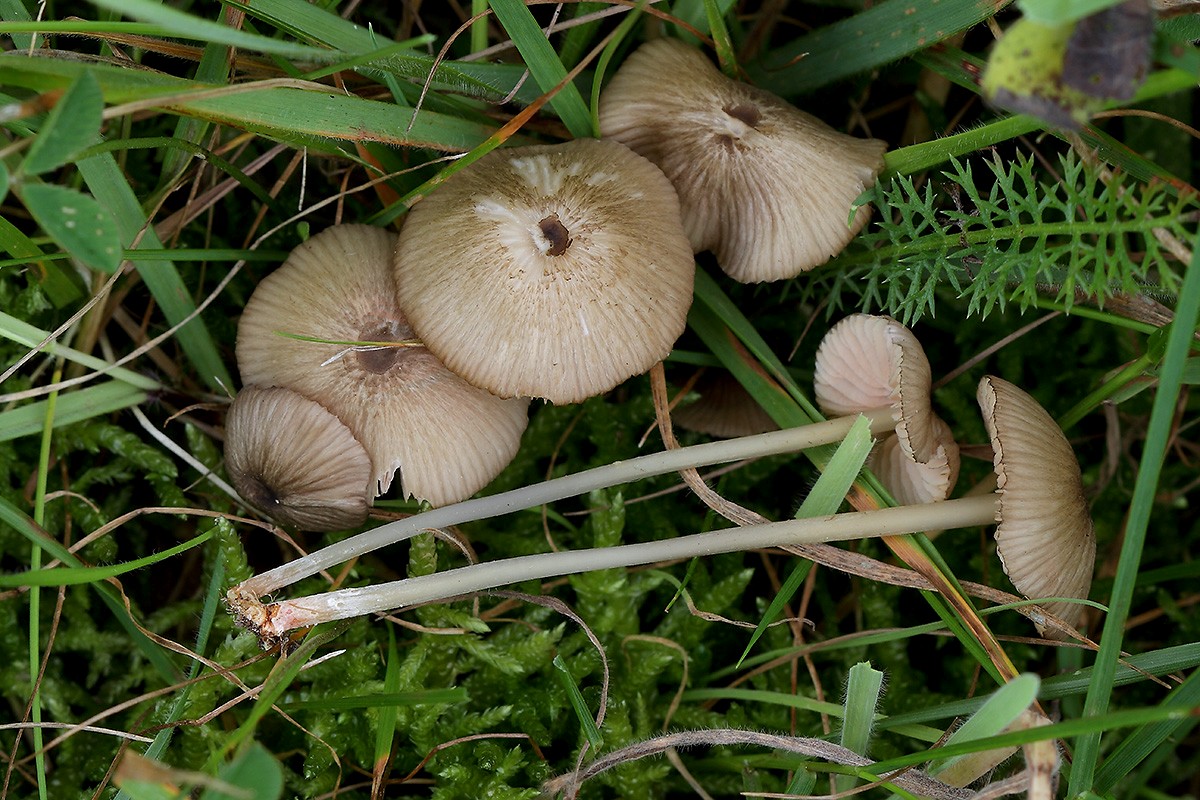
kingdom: Fungi
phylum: Basidiomycota
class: Agaricomycetes
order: Agaricales
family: Entolomataceae
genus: Entoloma
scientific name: Entoloma exile
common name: rødplettet rødblad
